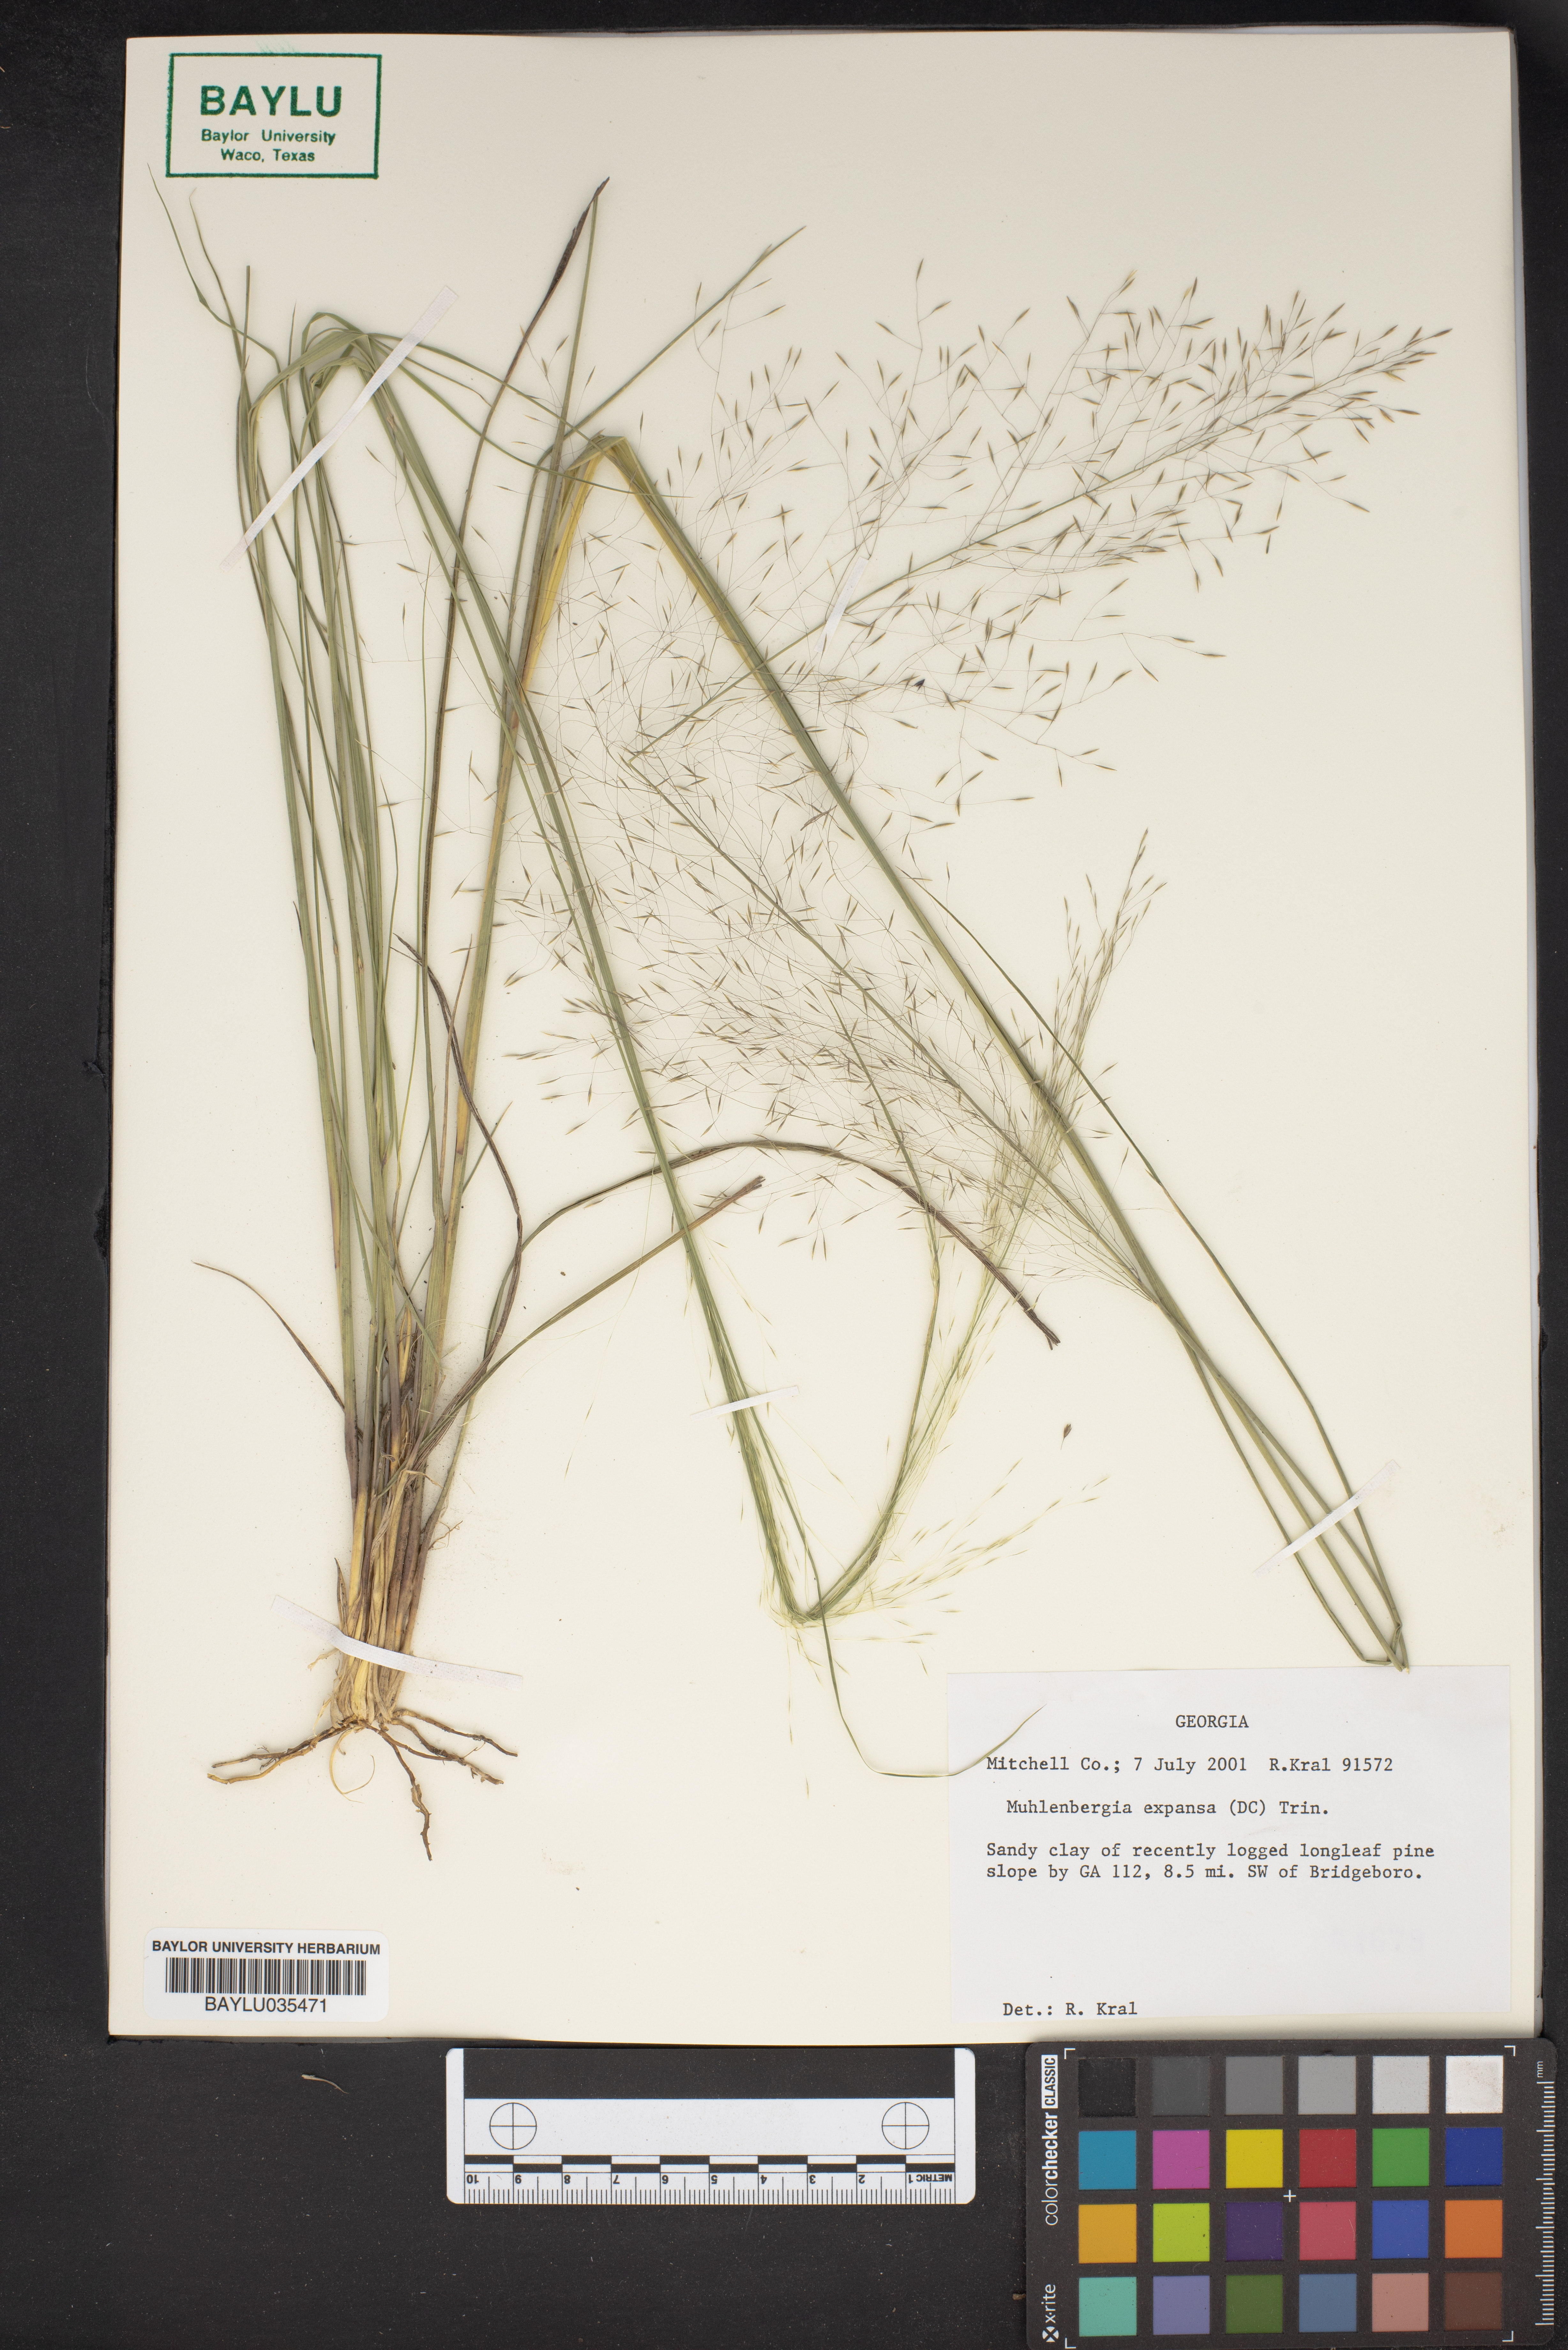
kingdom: Plantae
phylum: Tracheophyta
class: Liliopsida
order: Poales
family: Poaceae
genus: Muhlenbergia
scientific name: Muhlenbergia expansa
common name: Savannah hairgrass
